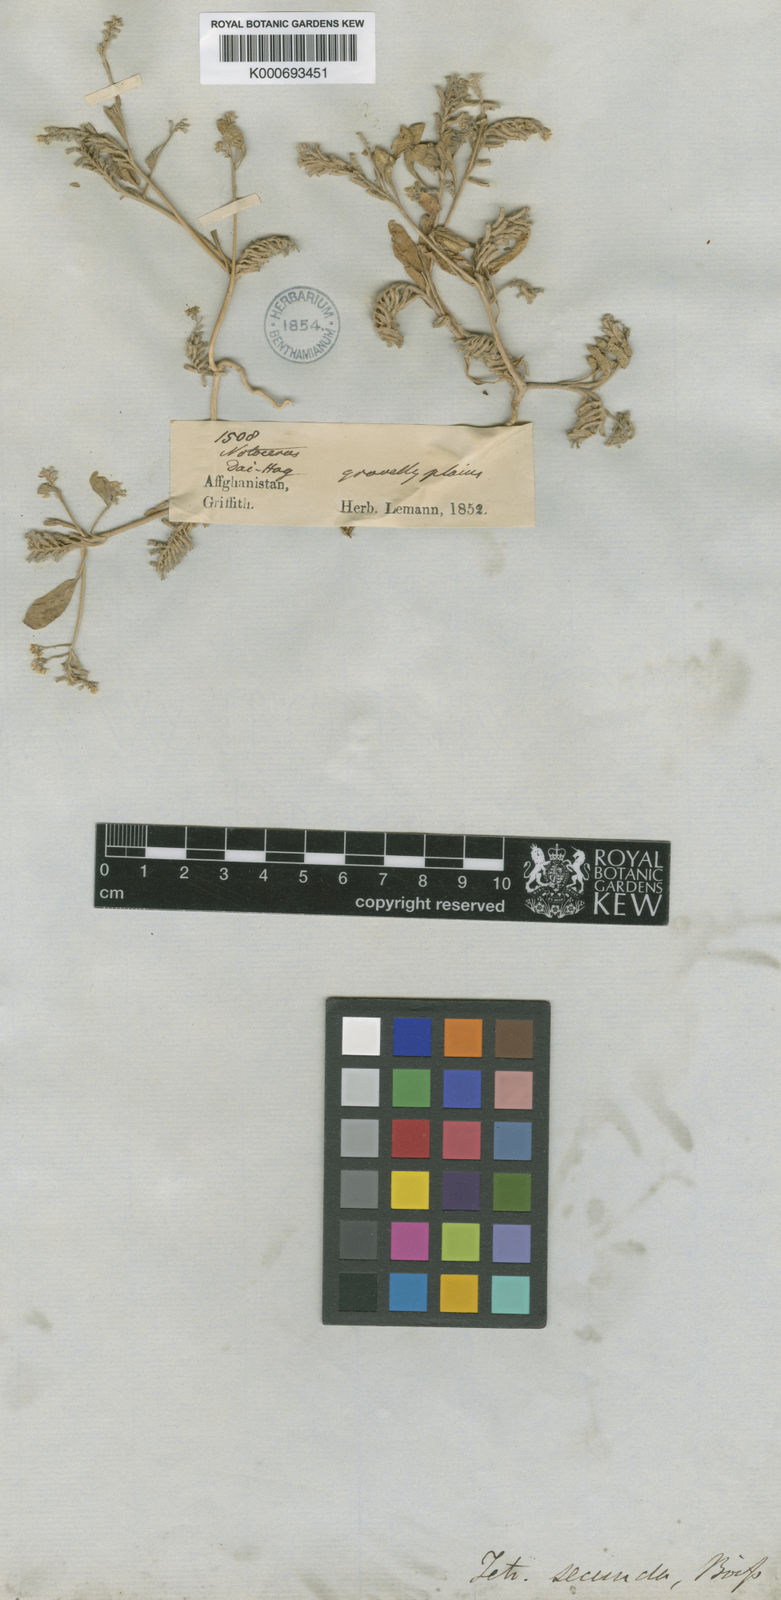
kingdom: Plantae
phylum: Tracheophyta
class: Magnoliopsida
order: Brassicales
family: Brassicaceae
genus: Tetracme
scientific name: Tetracme secunda
